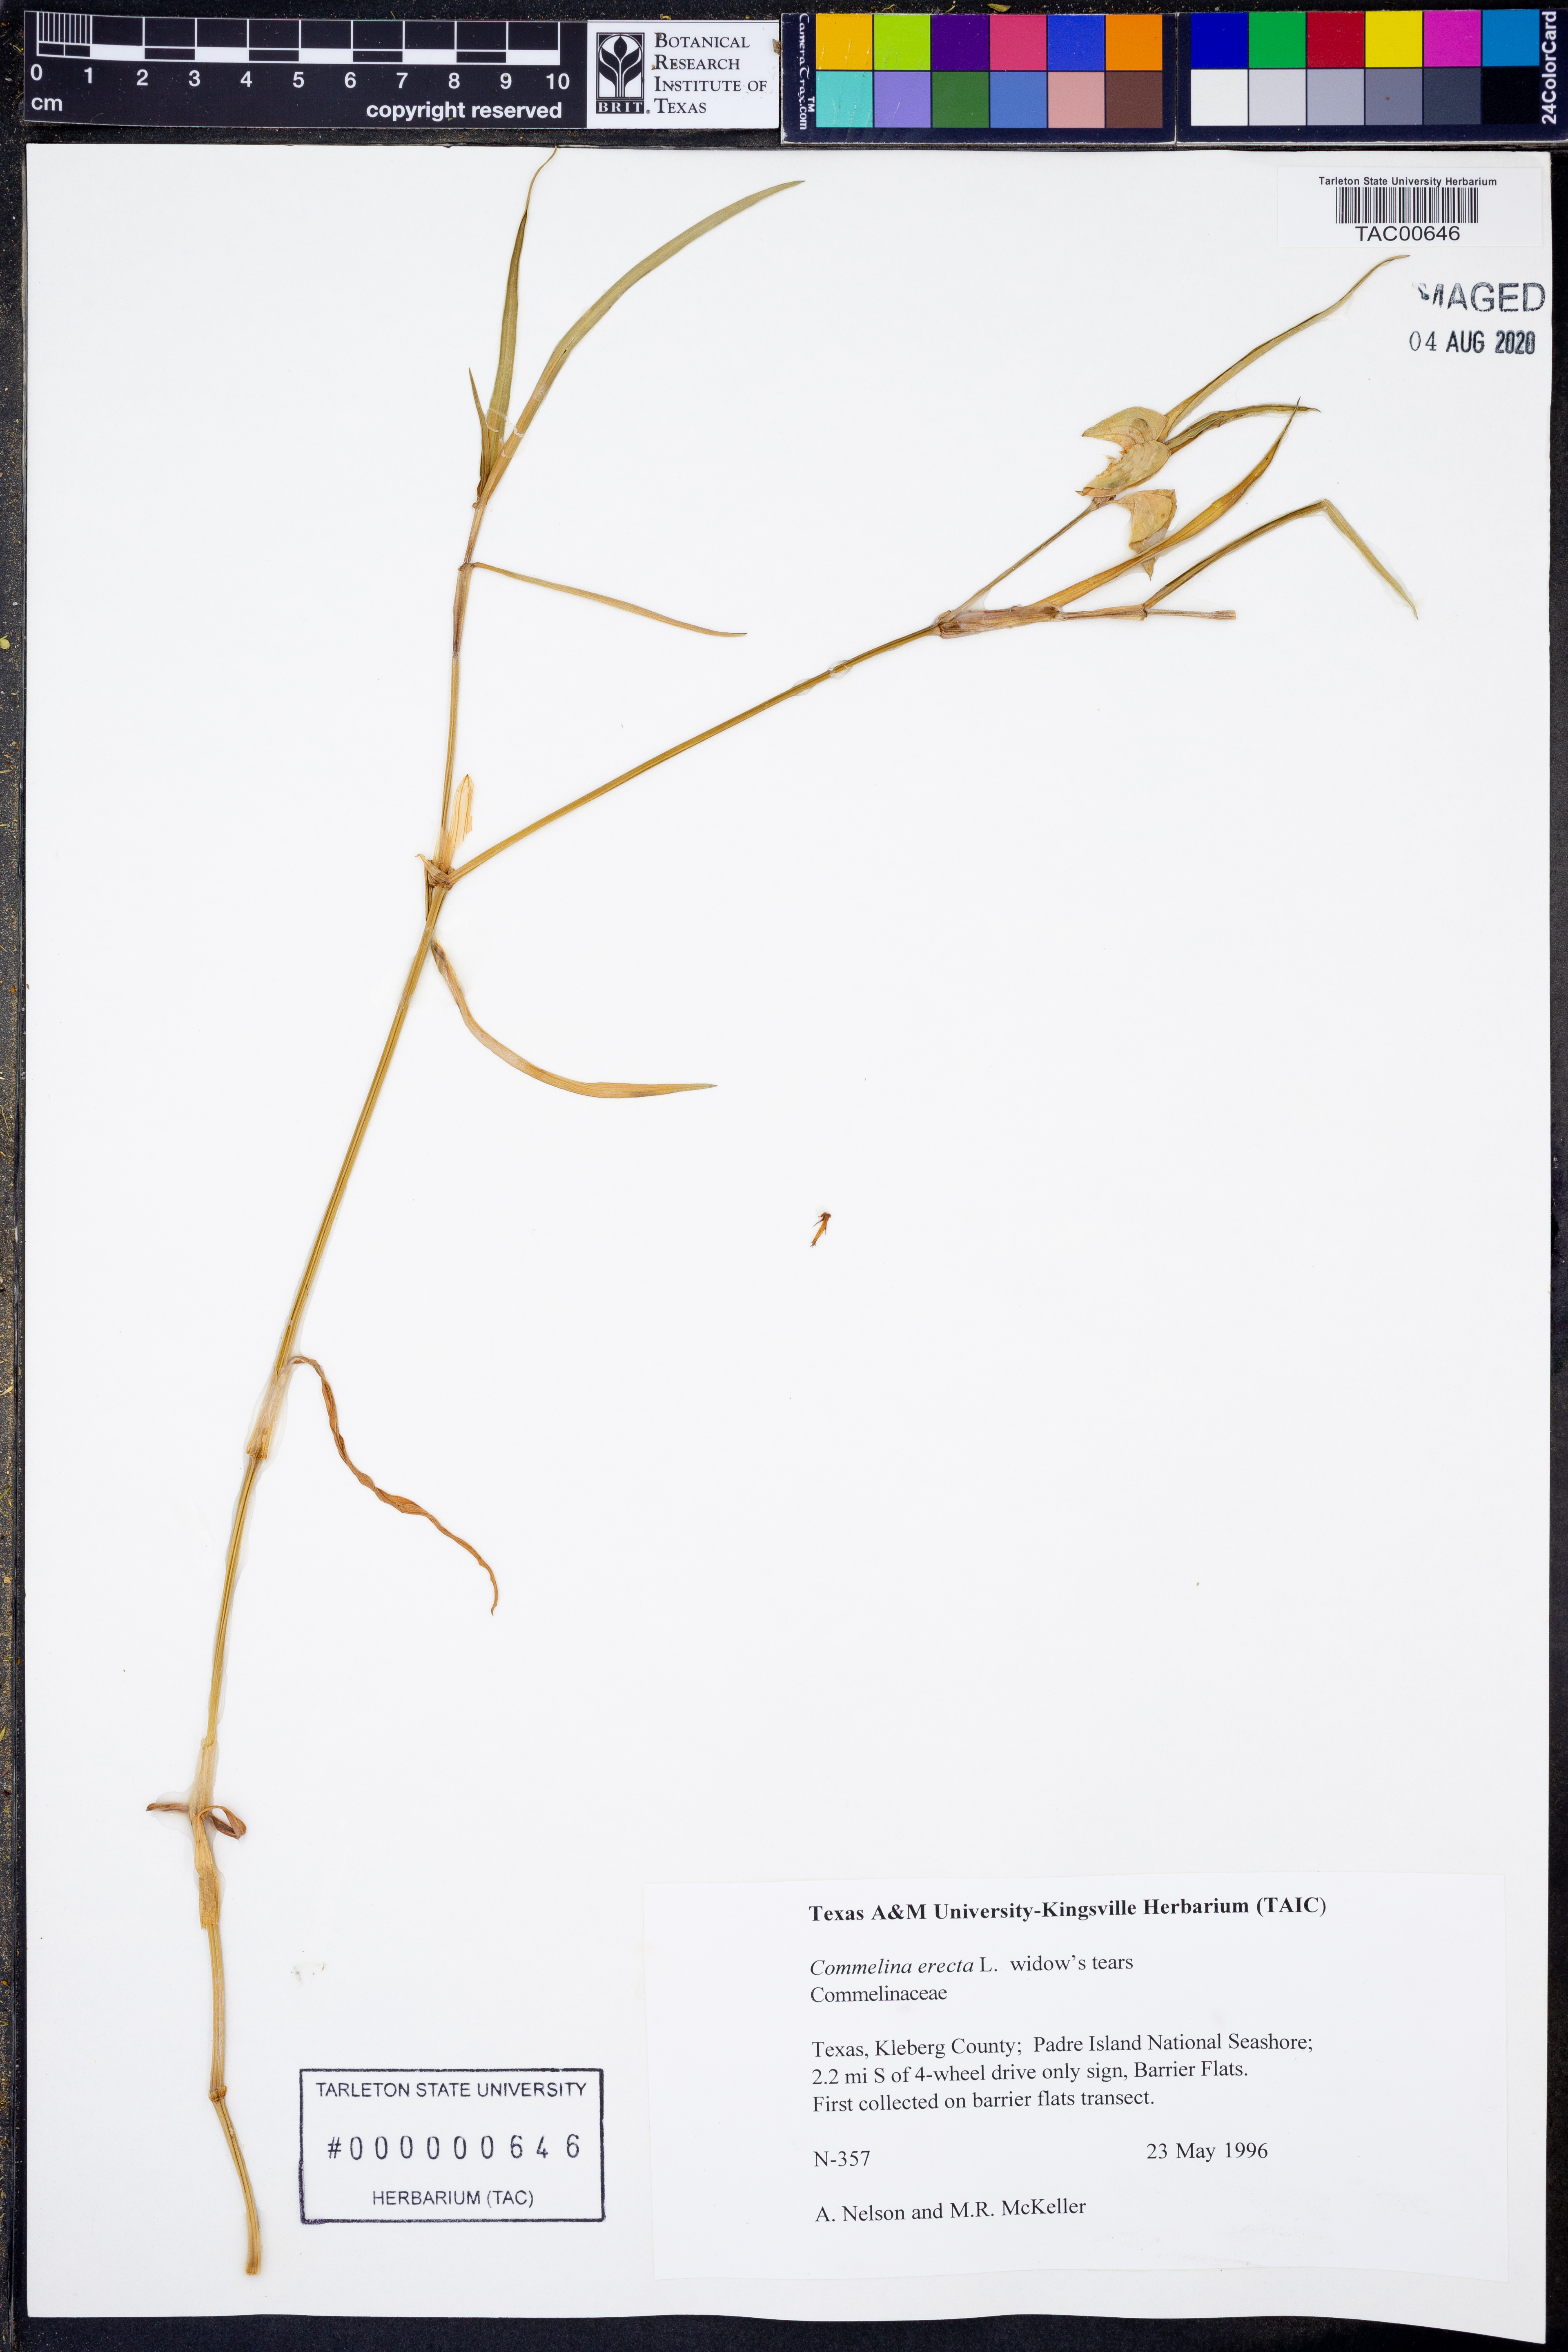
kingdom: Plantae
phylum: Tracheophyta
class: Liliopsida
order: Commelinales
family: Commelinaceae
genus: Commelina
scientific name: Commelina erecta
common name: Blousel blommetjie
